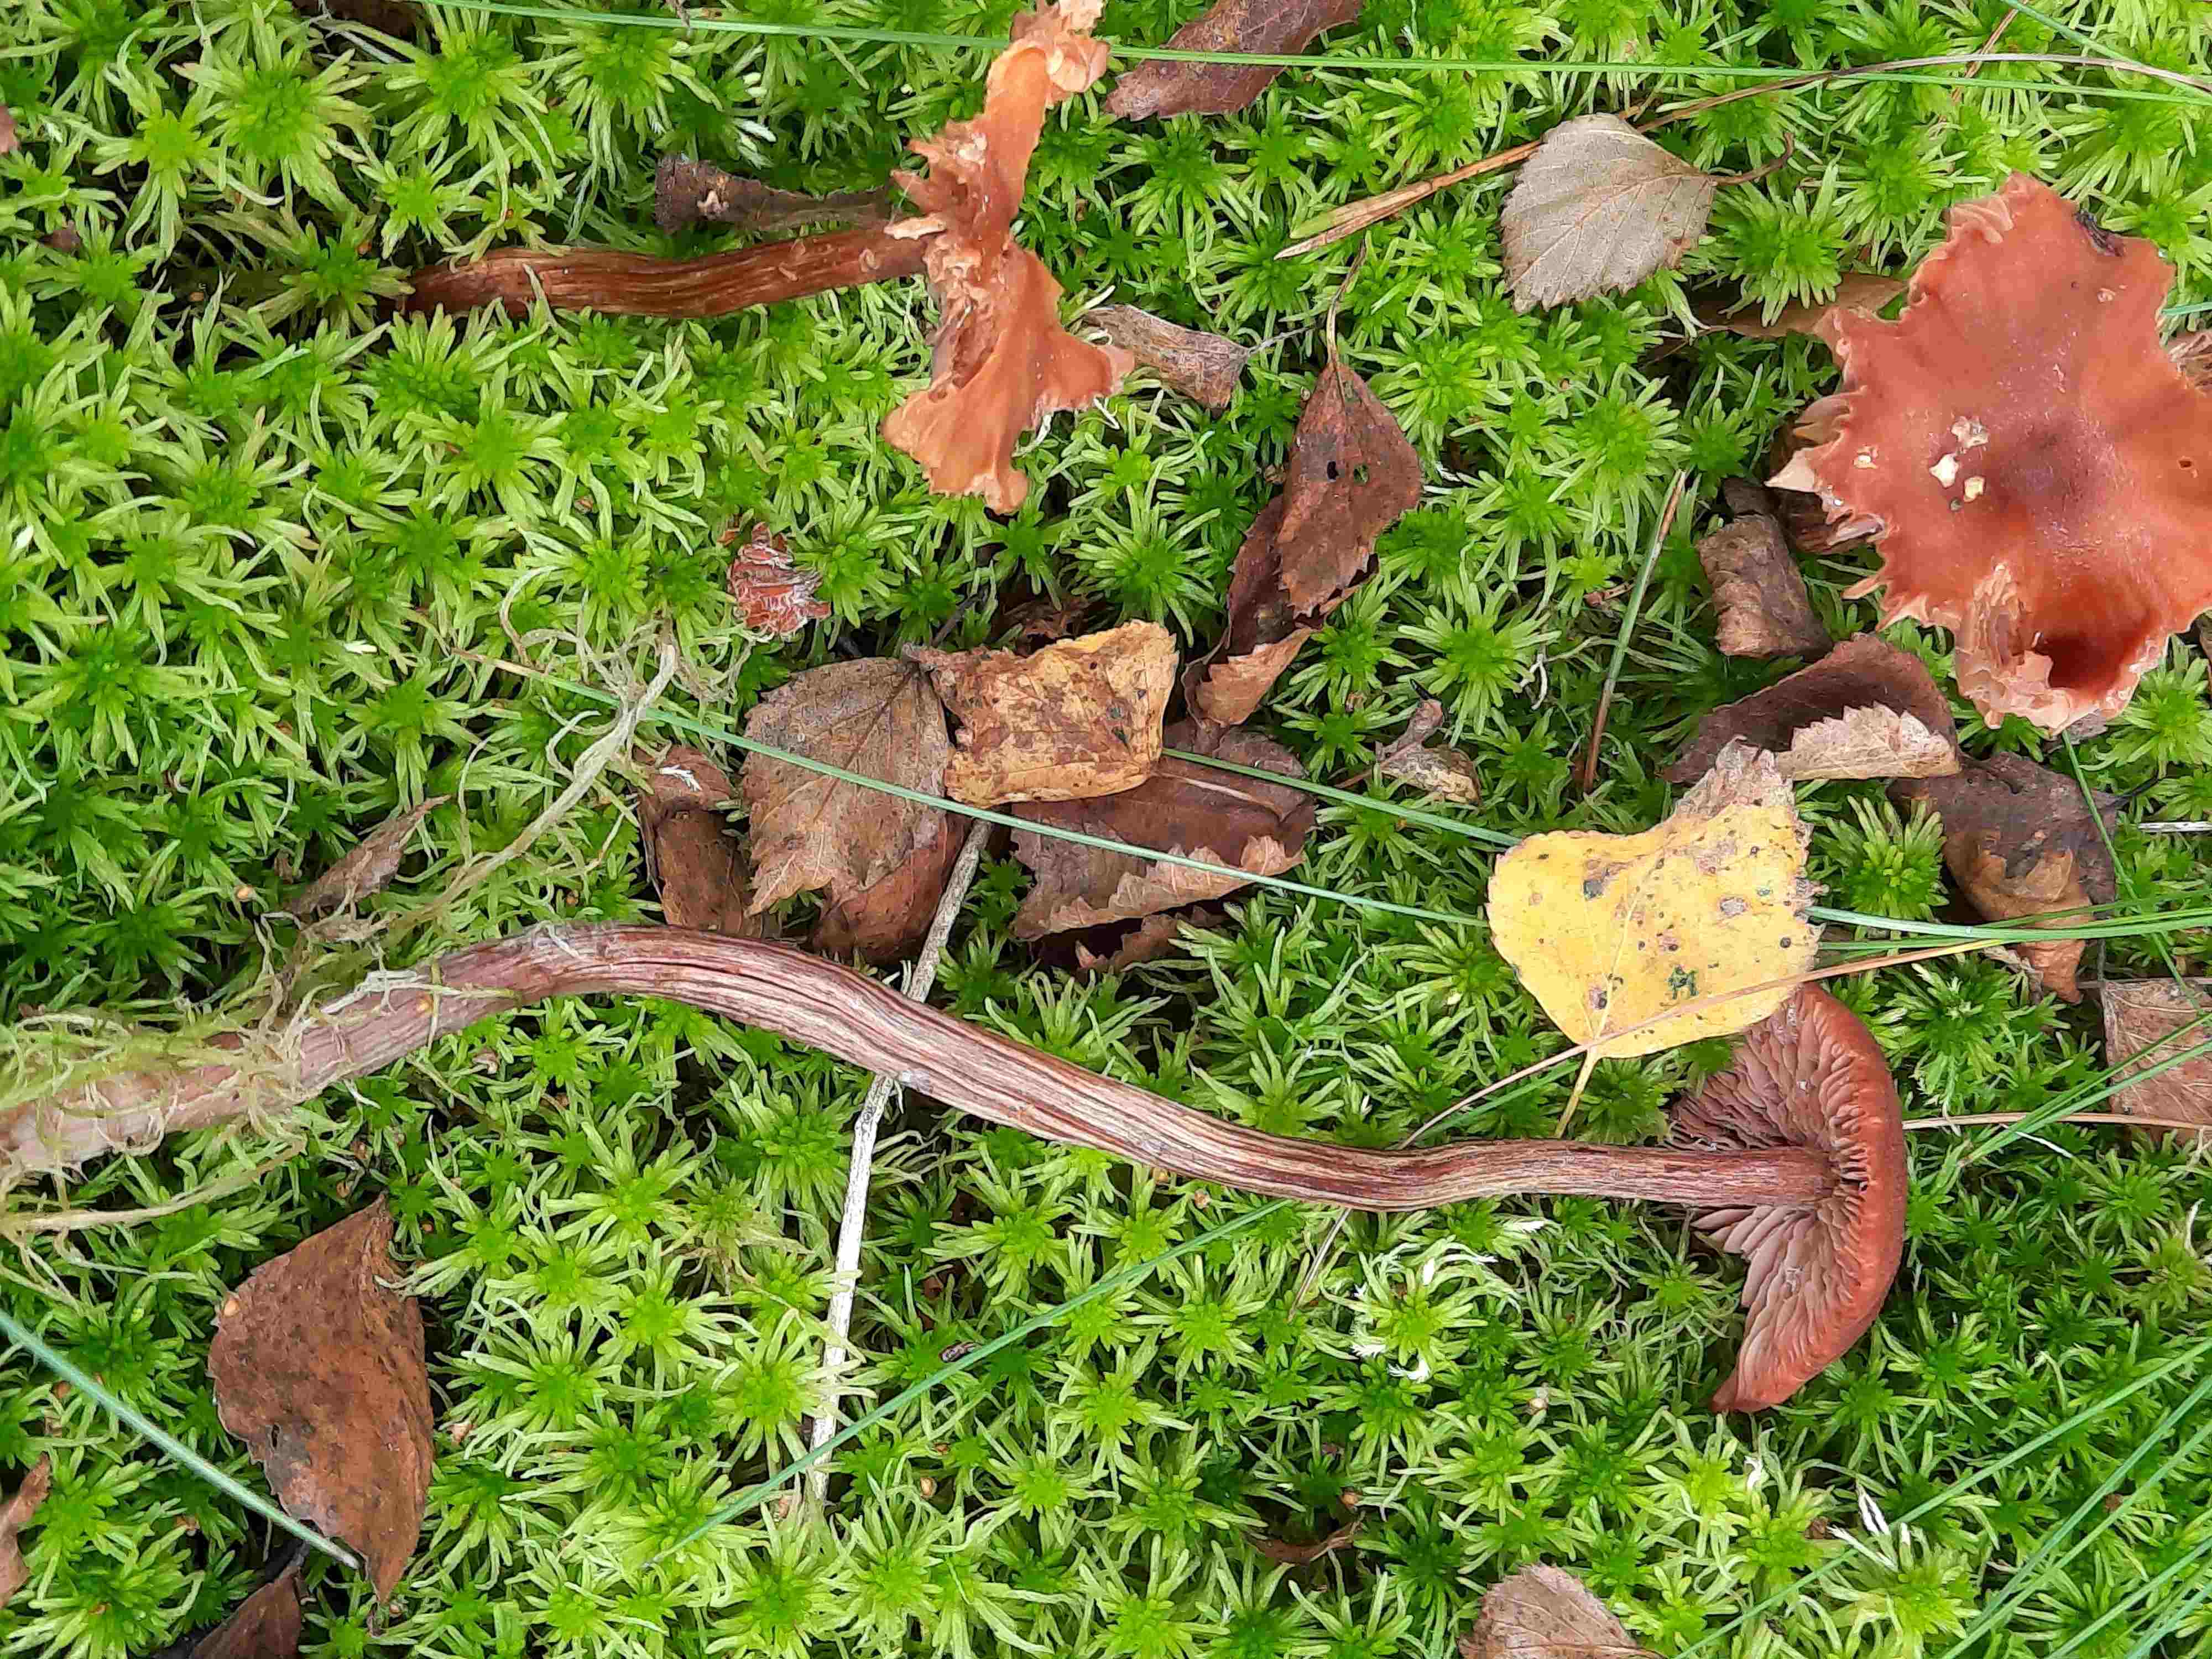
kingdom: Fungi
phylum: Basidiomycota
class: Agaricomycetes
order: Agaricales
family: Hydnangiaceae
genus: Laccaria
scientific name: Laccaria proxima
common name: stor ametysthat
